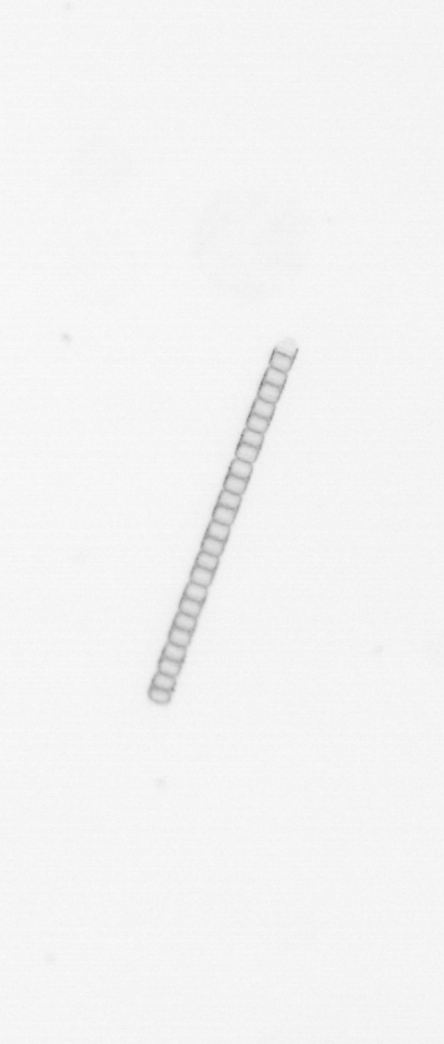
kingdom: Chromista
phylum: Ochrophyta
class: Bacillariophyceae
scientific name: Bacillariophyceae
